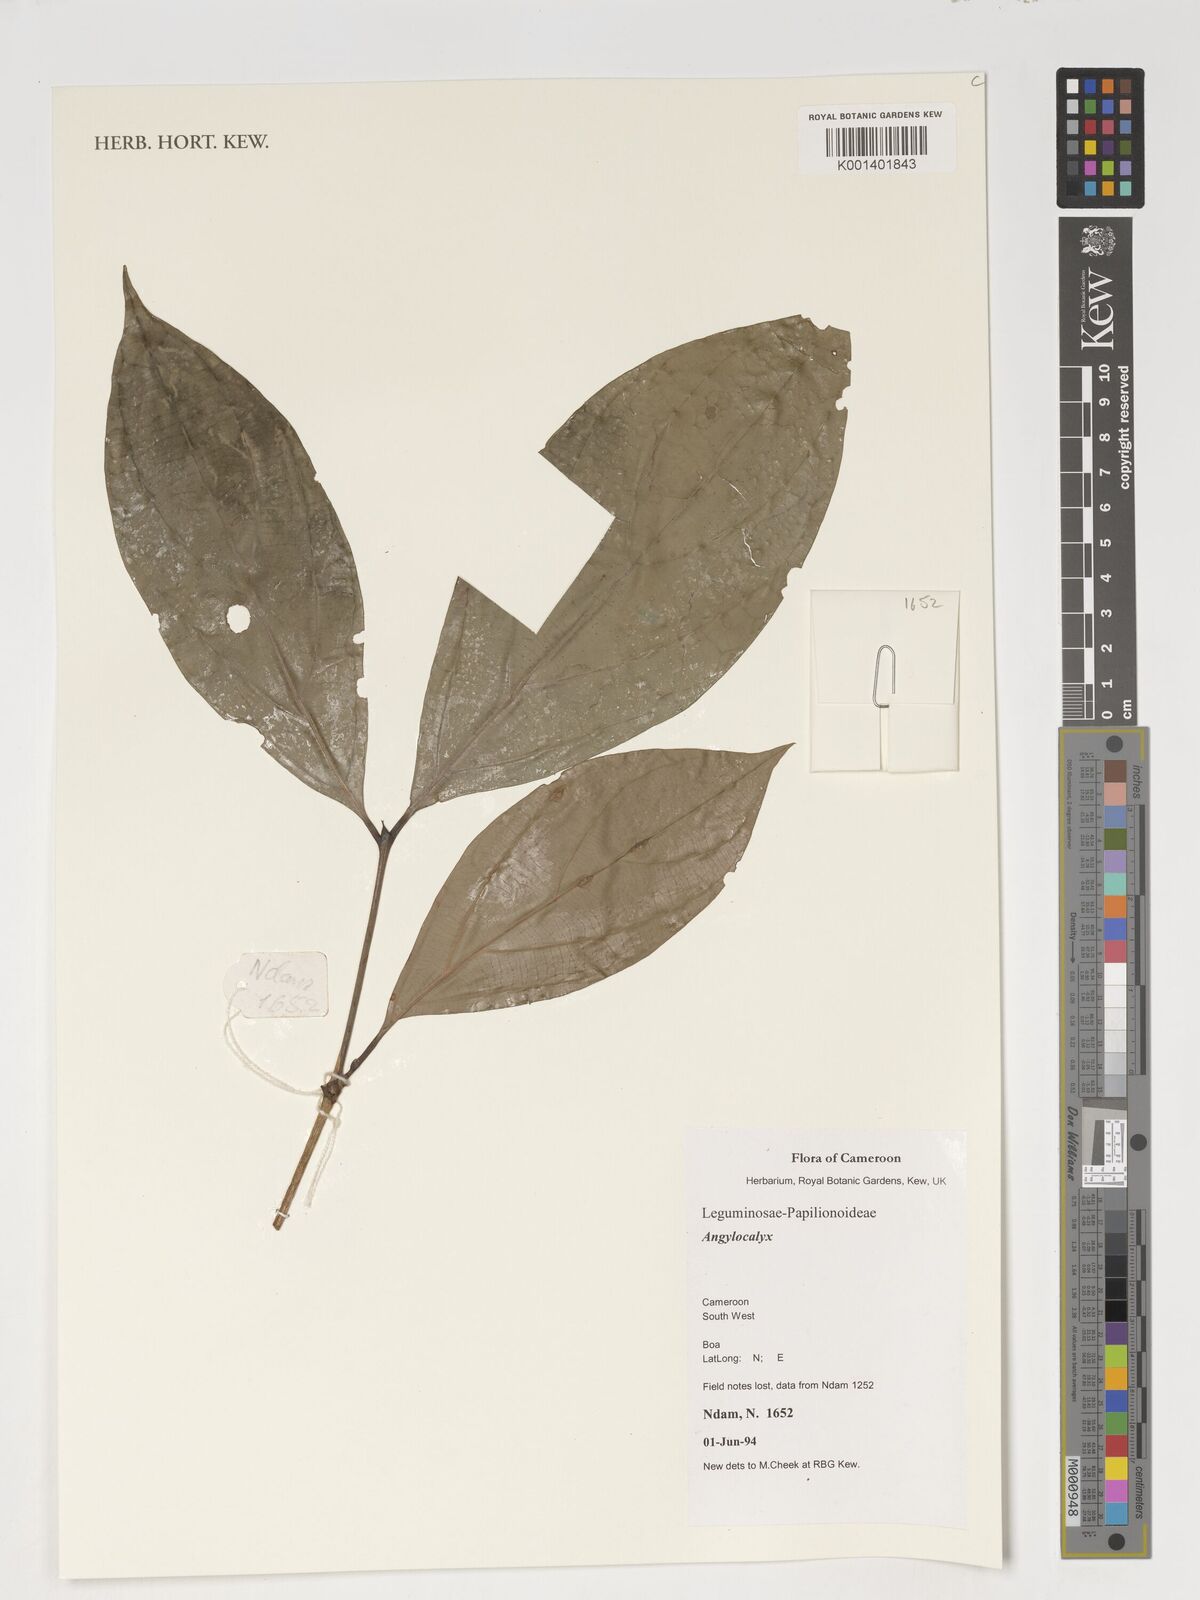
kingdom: Plantae
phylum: Tracheophyta
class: Magnoliopsida
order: Fabales
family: Fabaceae
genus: Angylocalyx
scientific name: Angylocalyx
